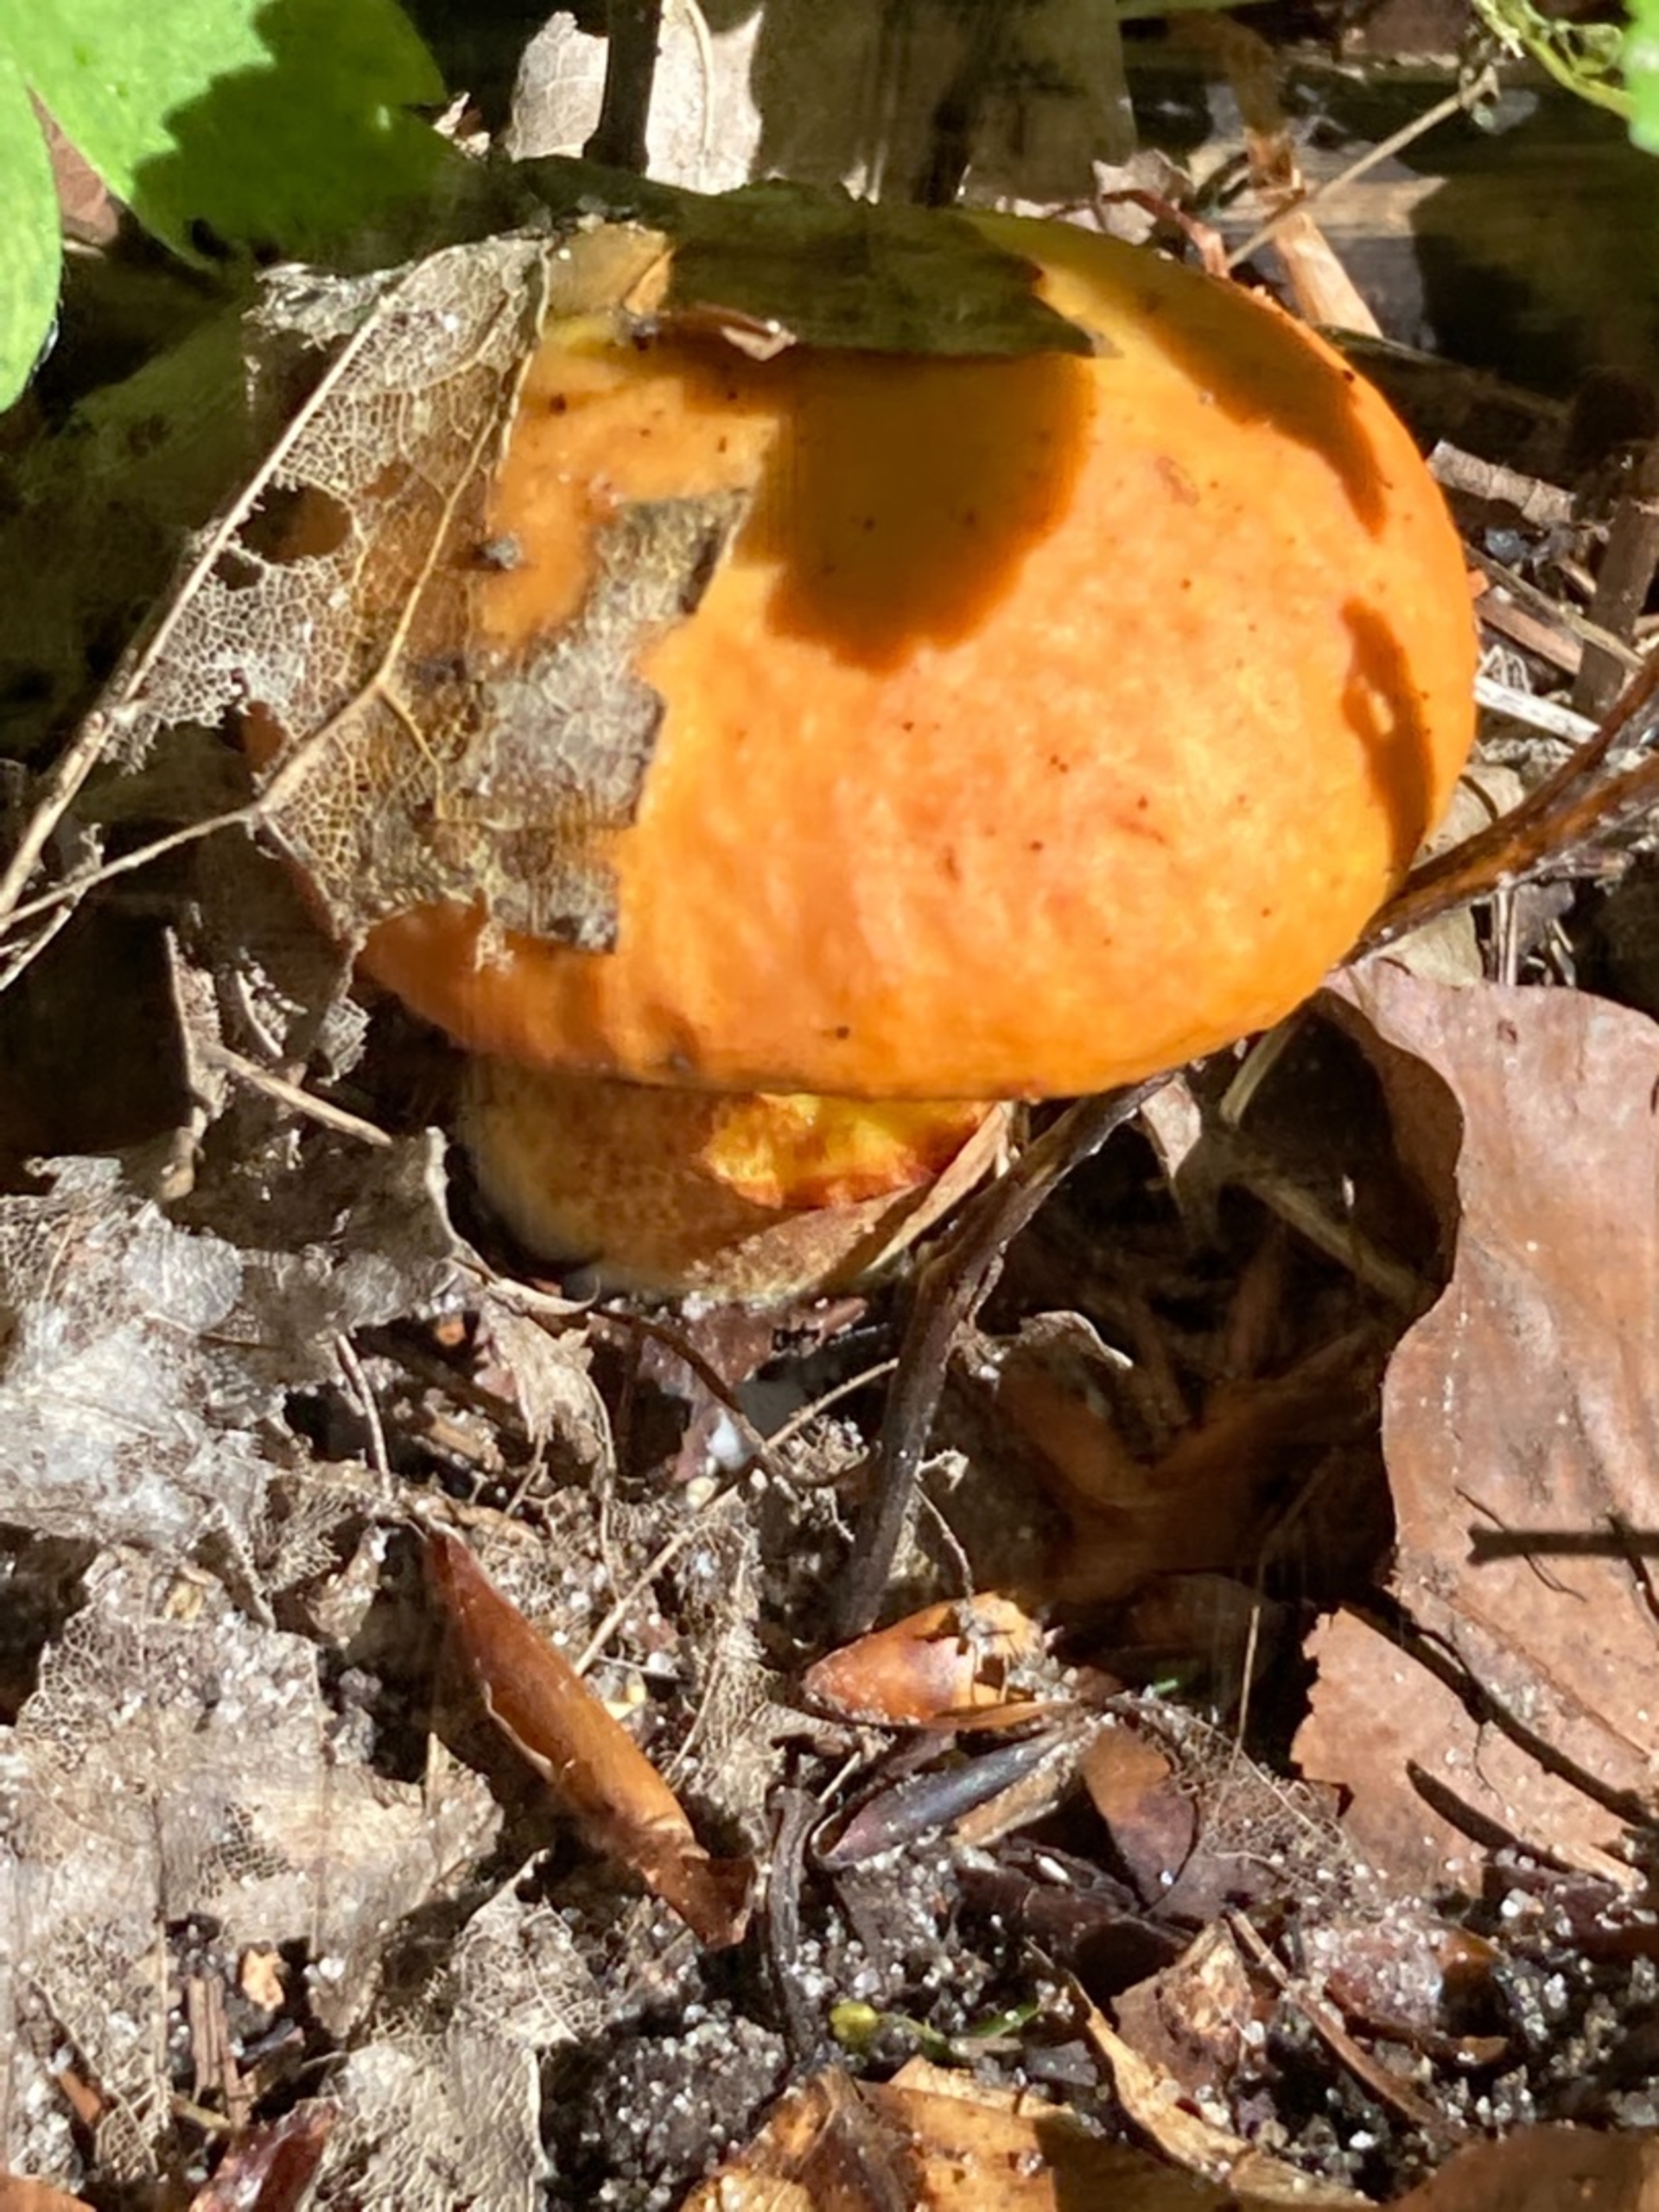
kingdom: Fungi
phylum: Basidiomycota
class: Agaricomycetes
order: Boletales
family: Suillaceae
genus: Suillus
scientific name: Suillus grevillei
